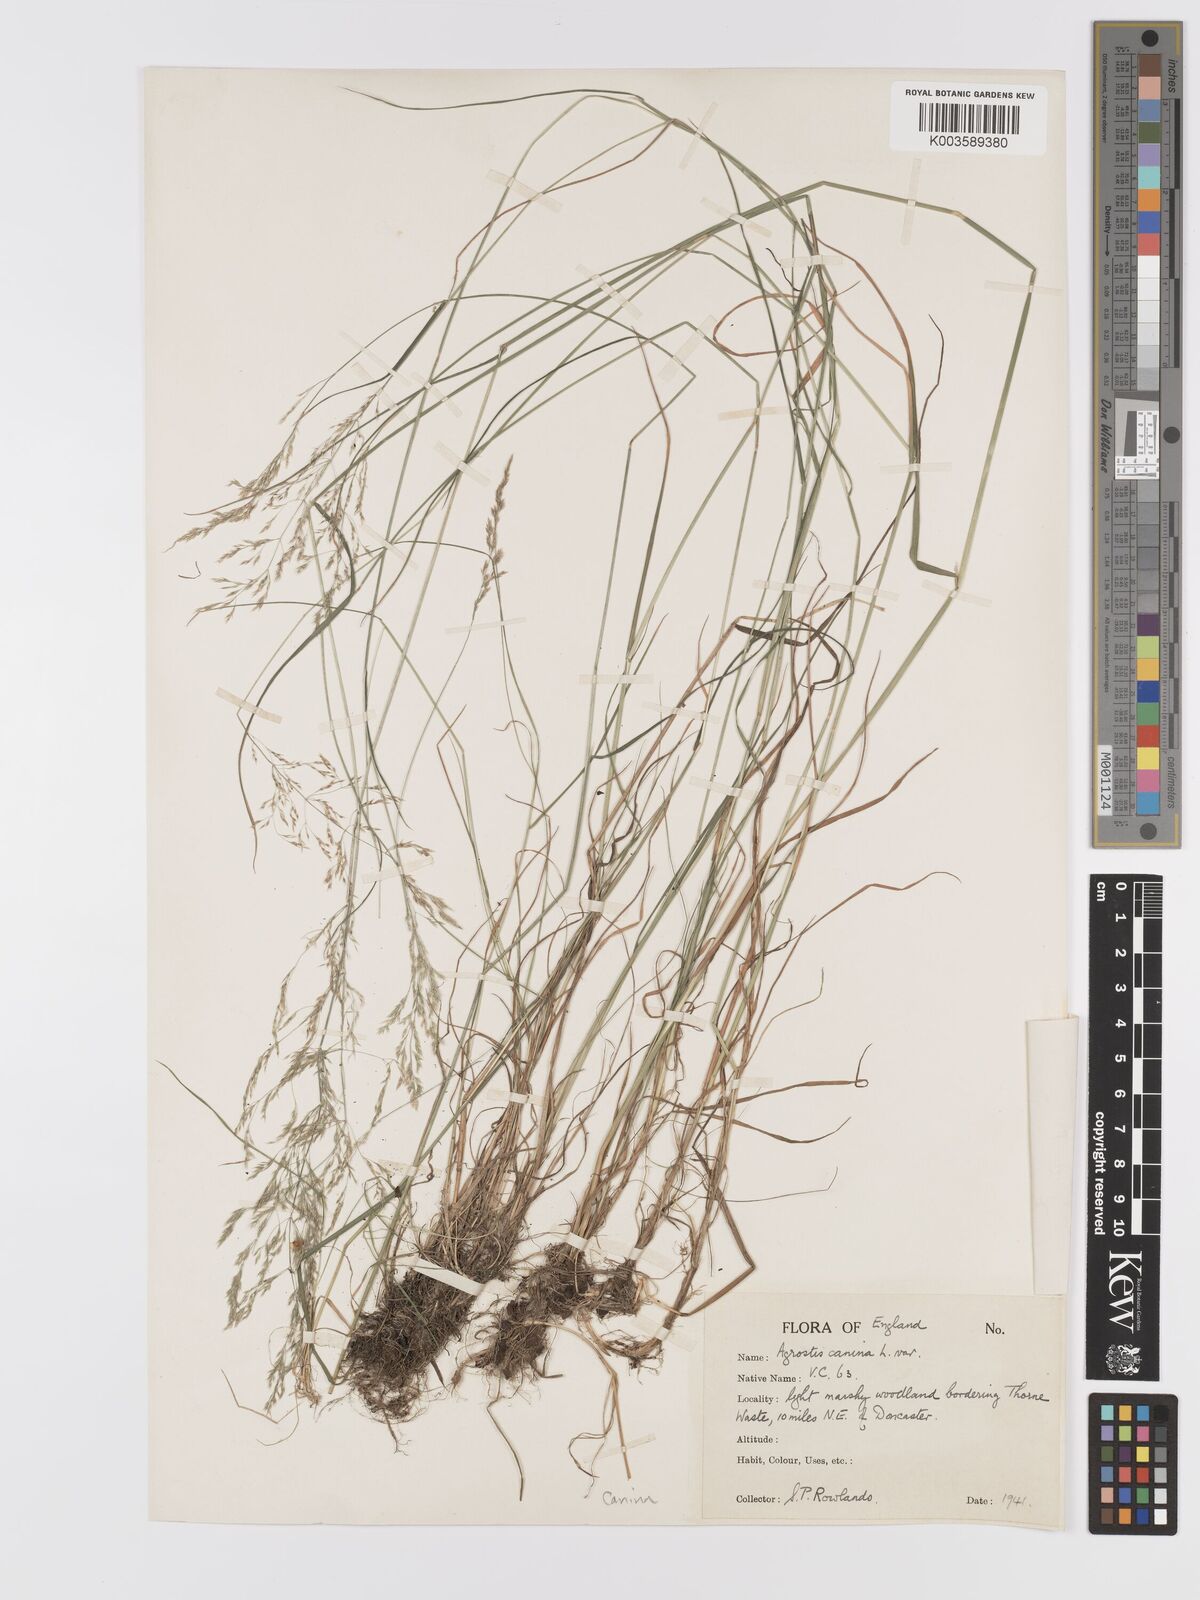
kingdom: Plantae
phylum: Tracheophyta
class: Liliopsida
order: Poales
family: Poaceae
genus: Agrostis
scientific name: Agrostis canina
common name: Velvet bent
